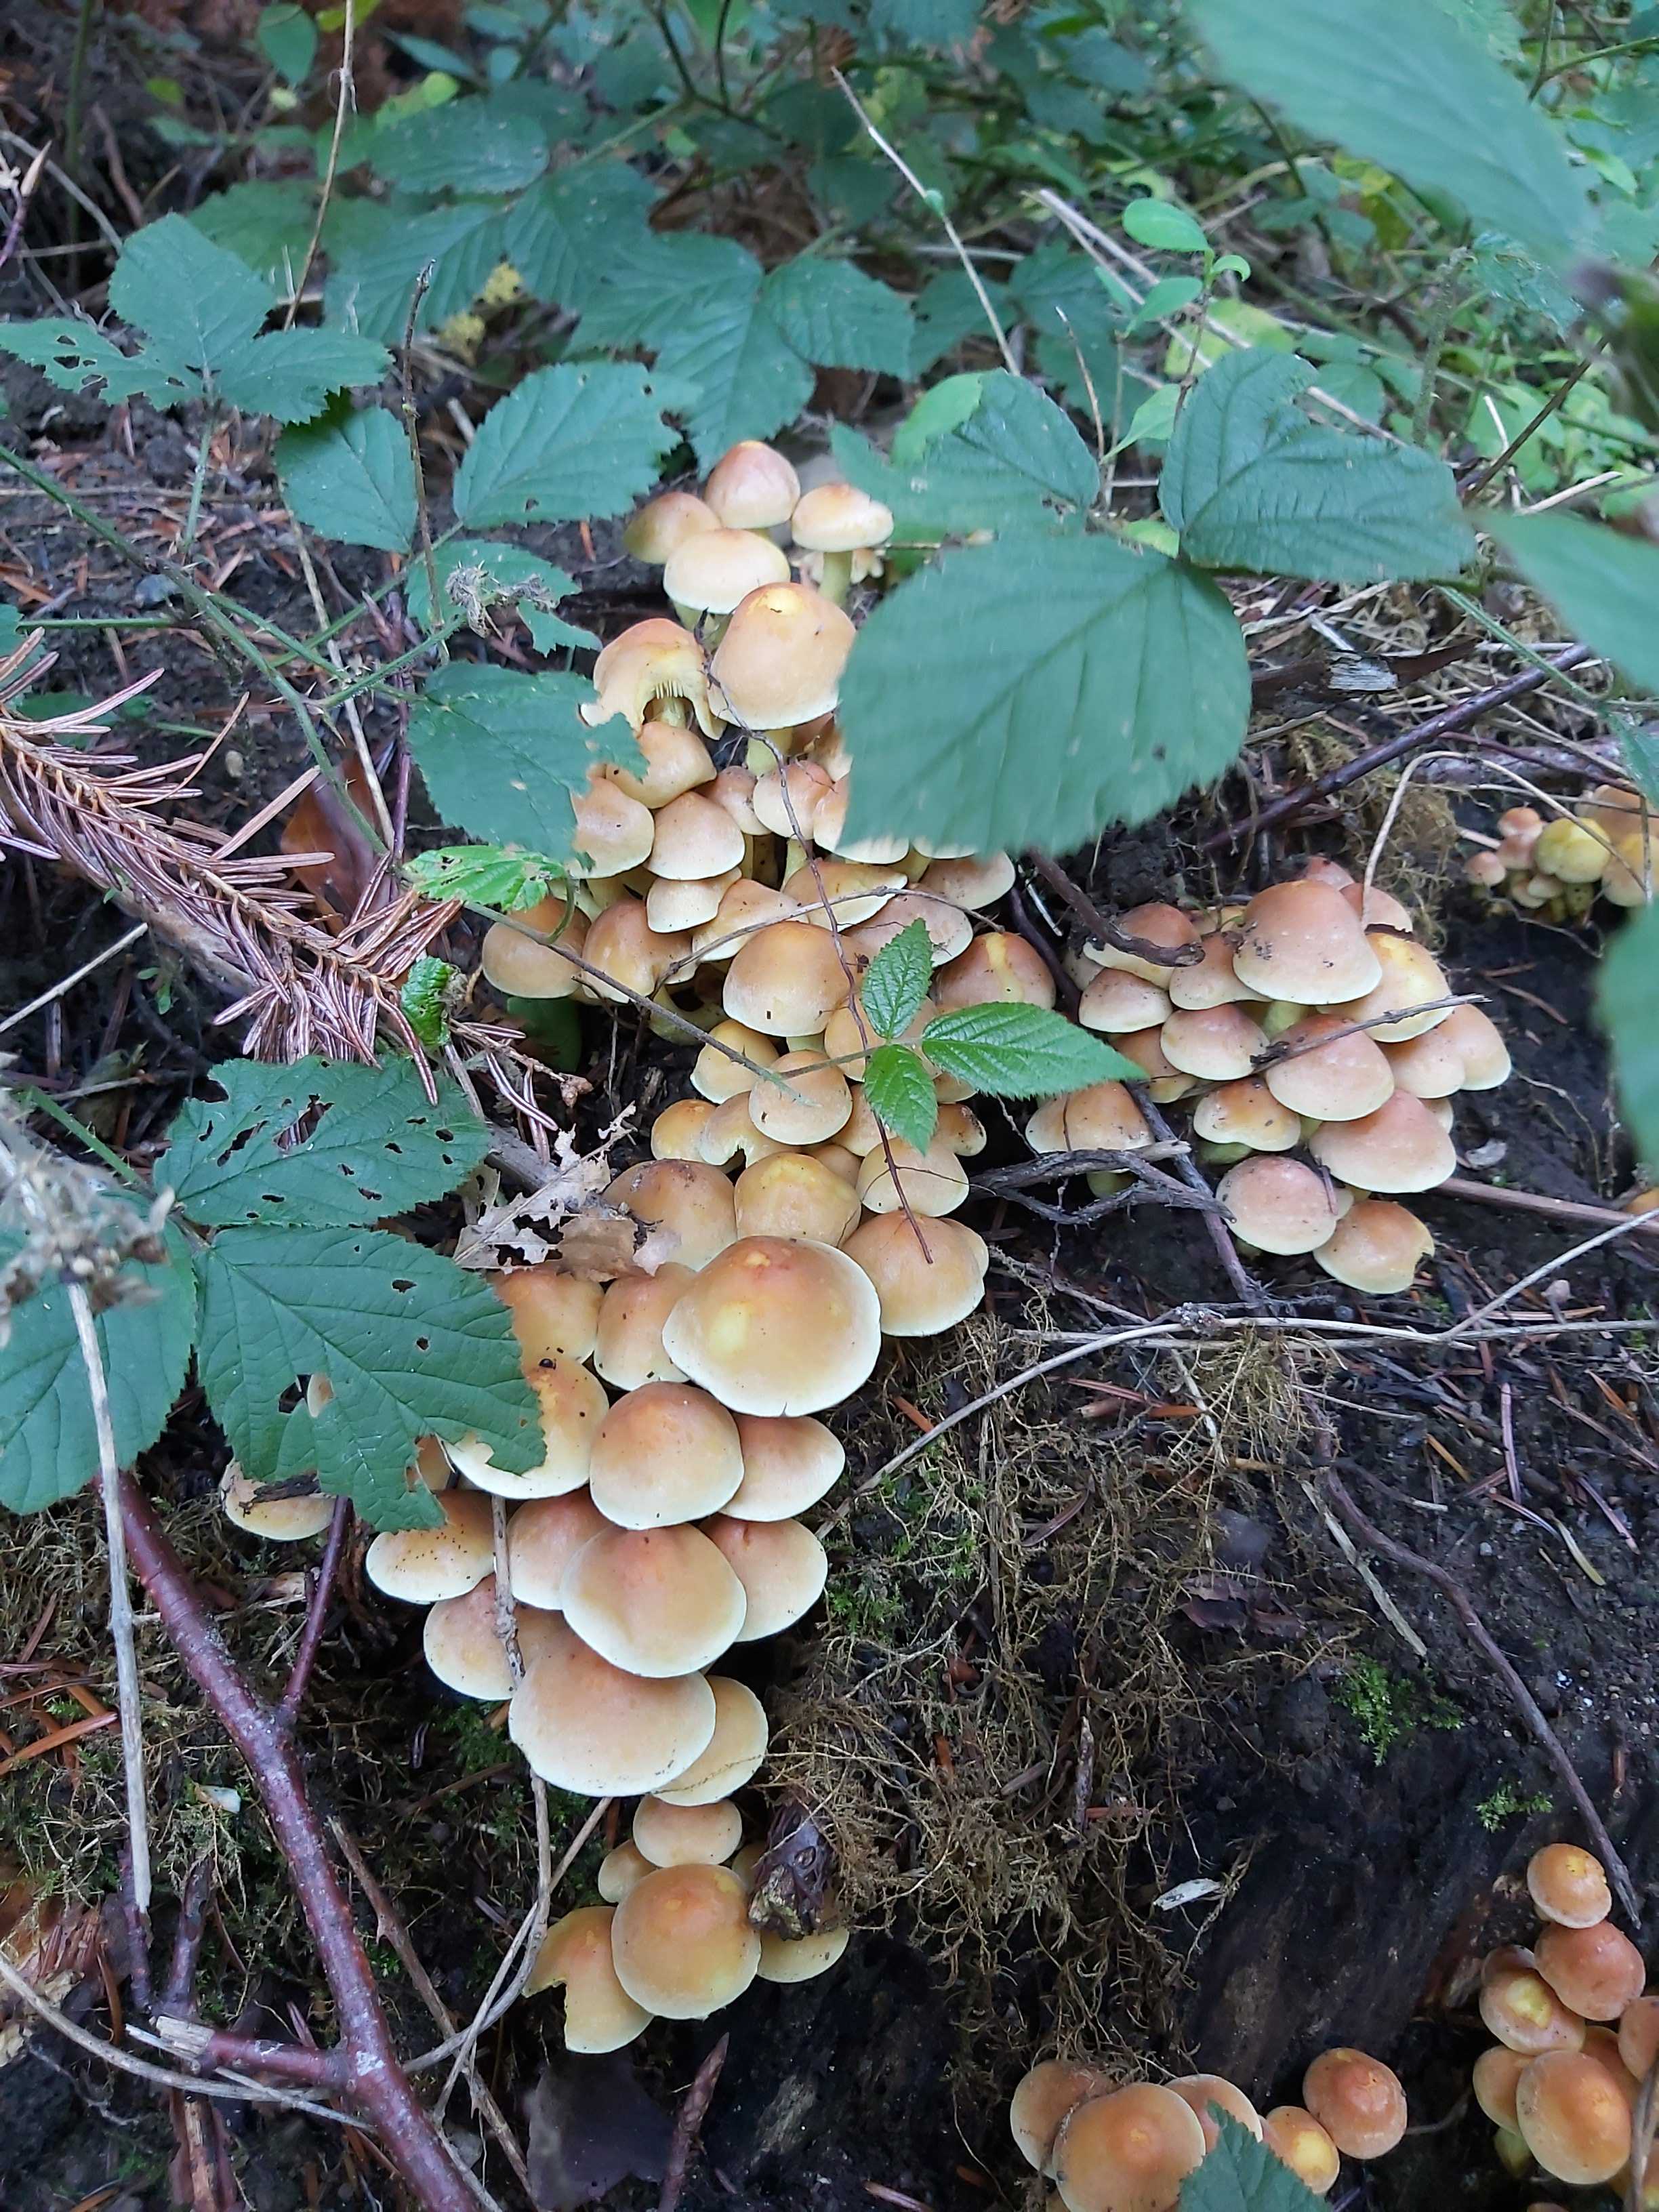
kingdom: Fungi
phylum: Basidiomycota
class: Agaricomycetes
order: Agaricales
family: Strophariaceae
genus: Hypholoma
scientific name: Hypholoma fasciculare
